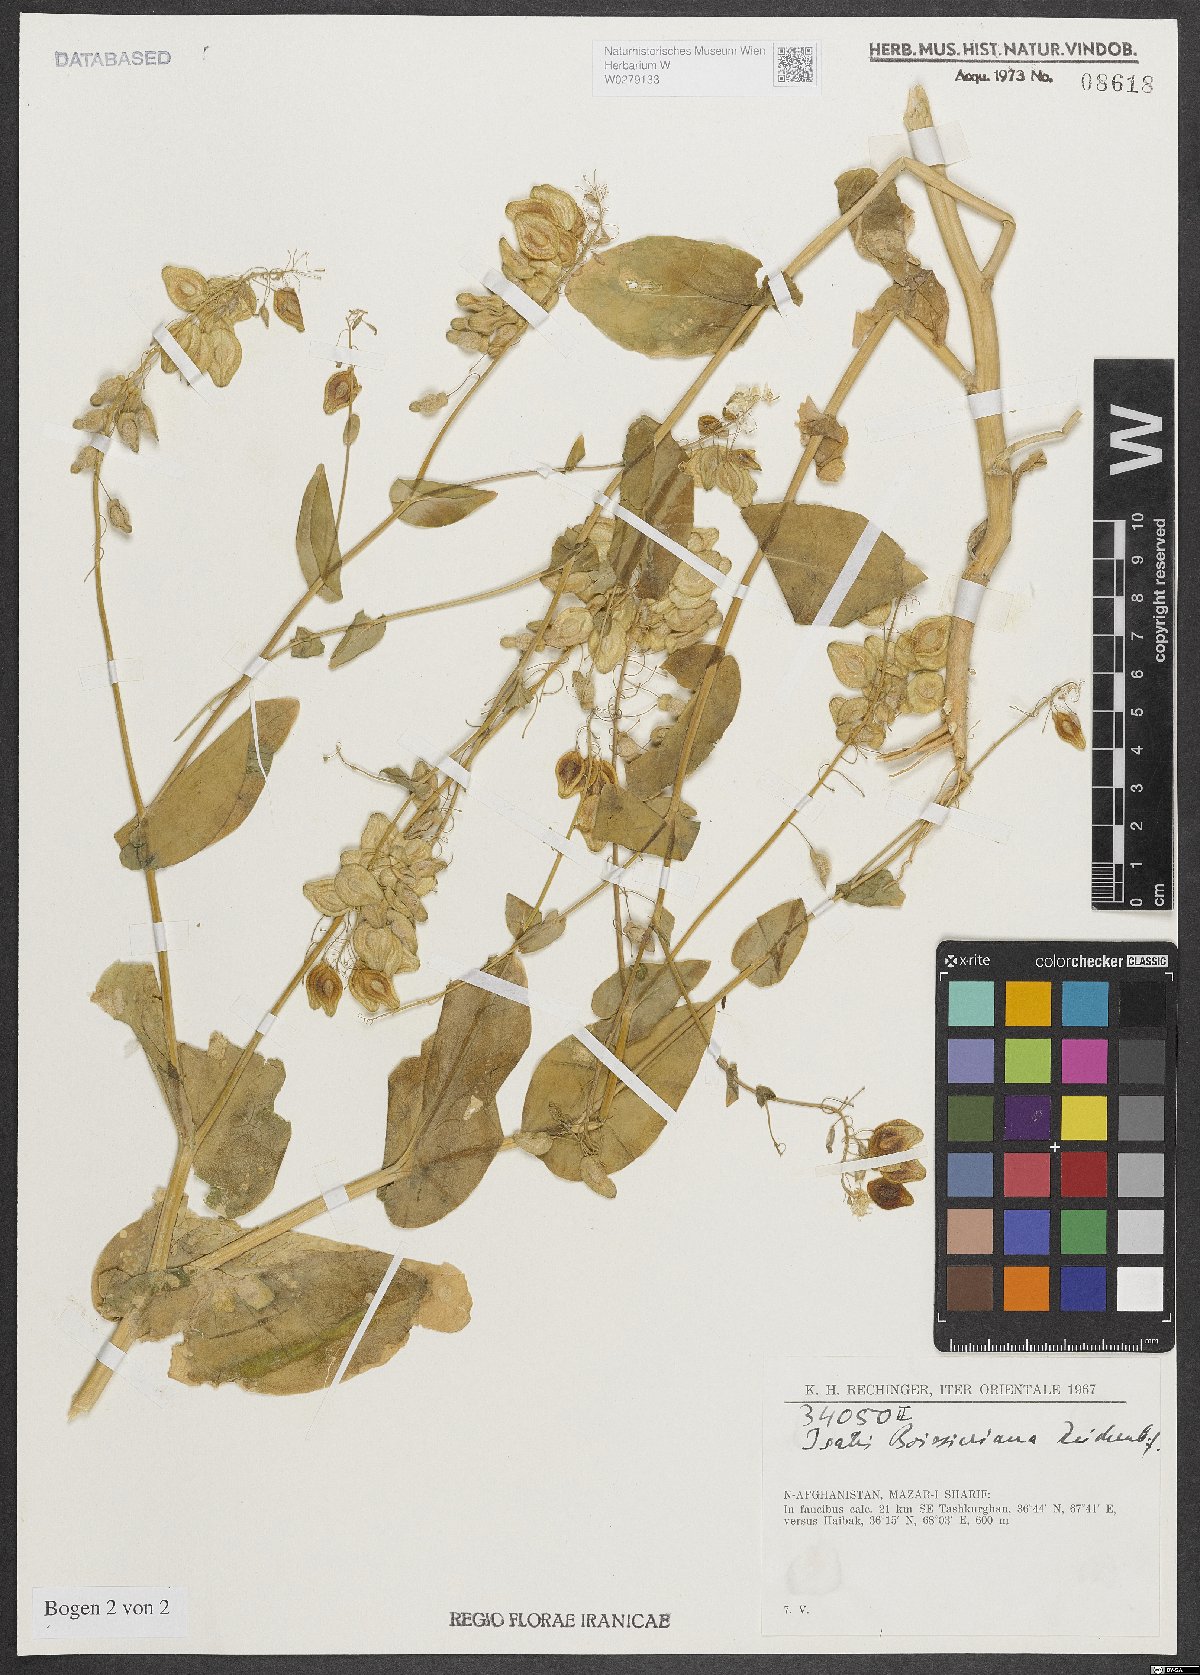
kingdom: Plantae
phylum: Tracheophyta
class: Magnoliopsida
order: Brassicales
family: Brassicaceae
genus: Isatis
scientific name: Isatis boissieriana
